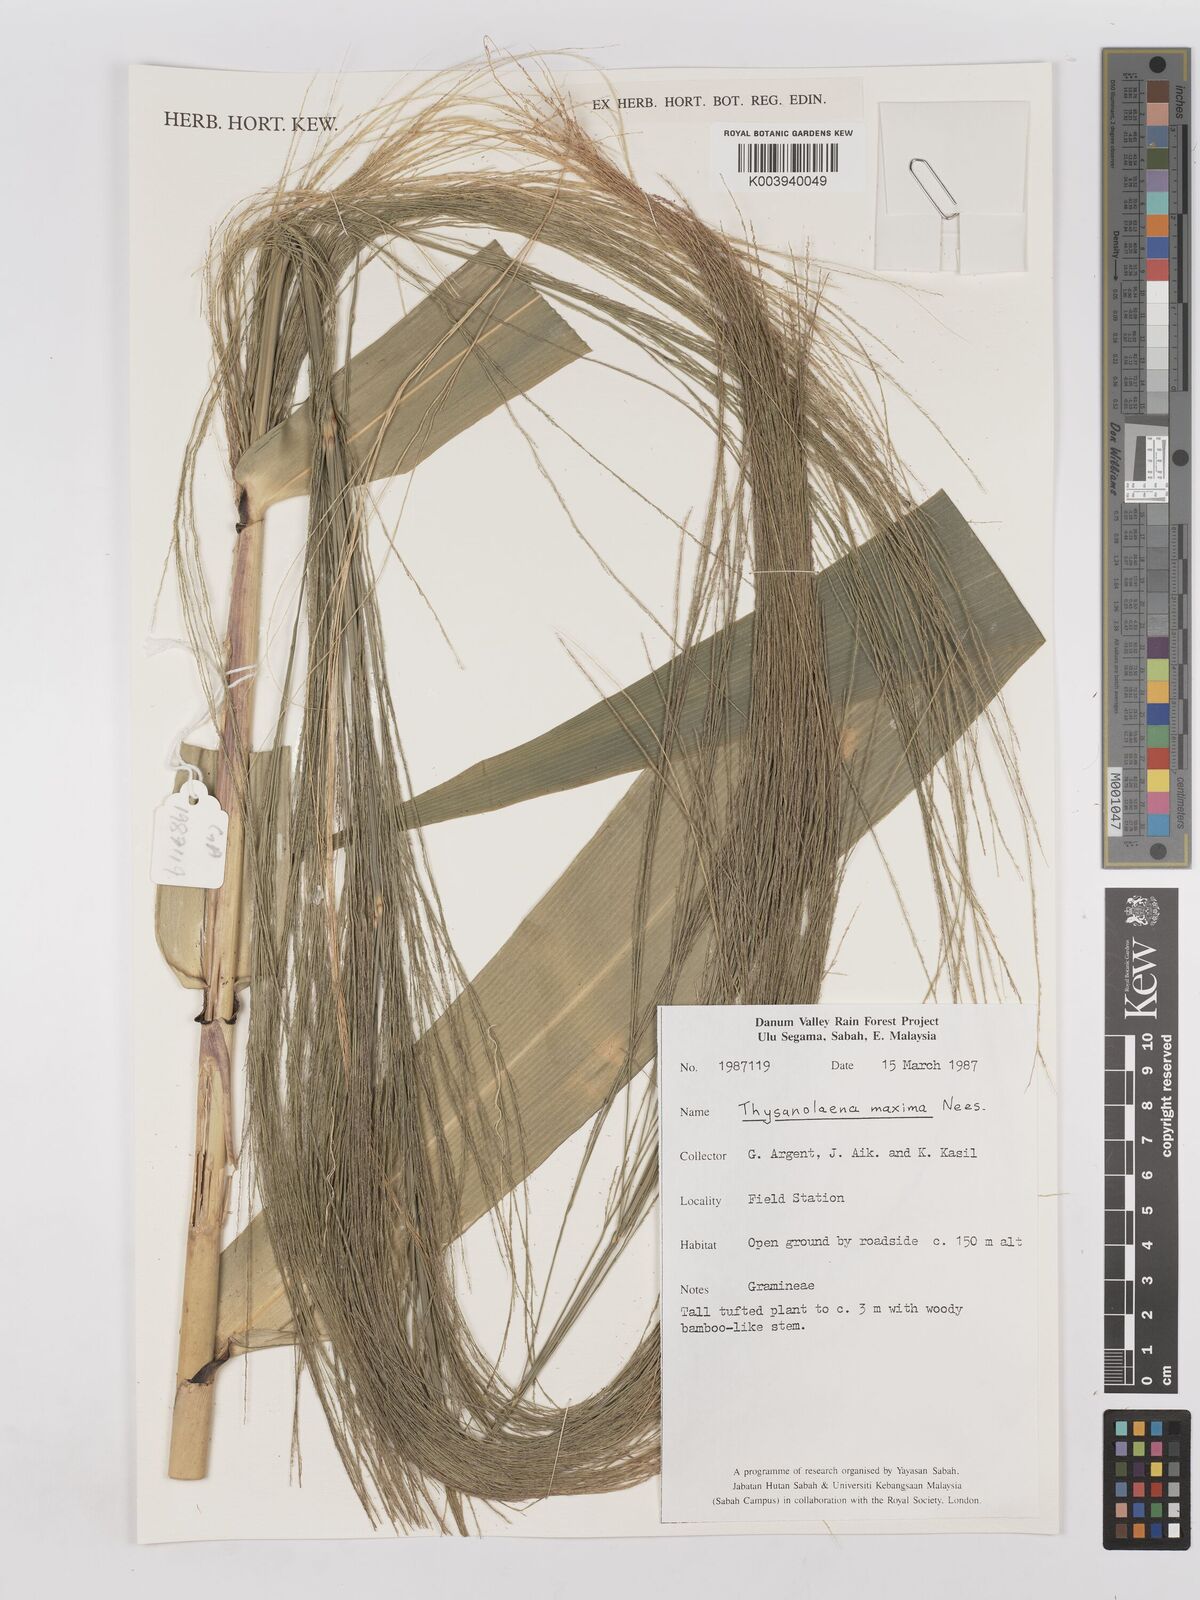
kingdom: Plantae
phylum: Tracheophyta
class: Liliopsida
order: Poales
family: Poaceae
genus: Thysanolaena
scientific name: Thysanolaena latifolia
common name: Tiger grass
